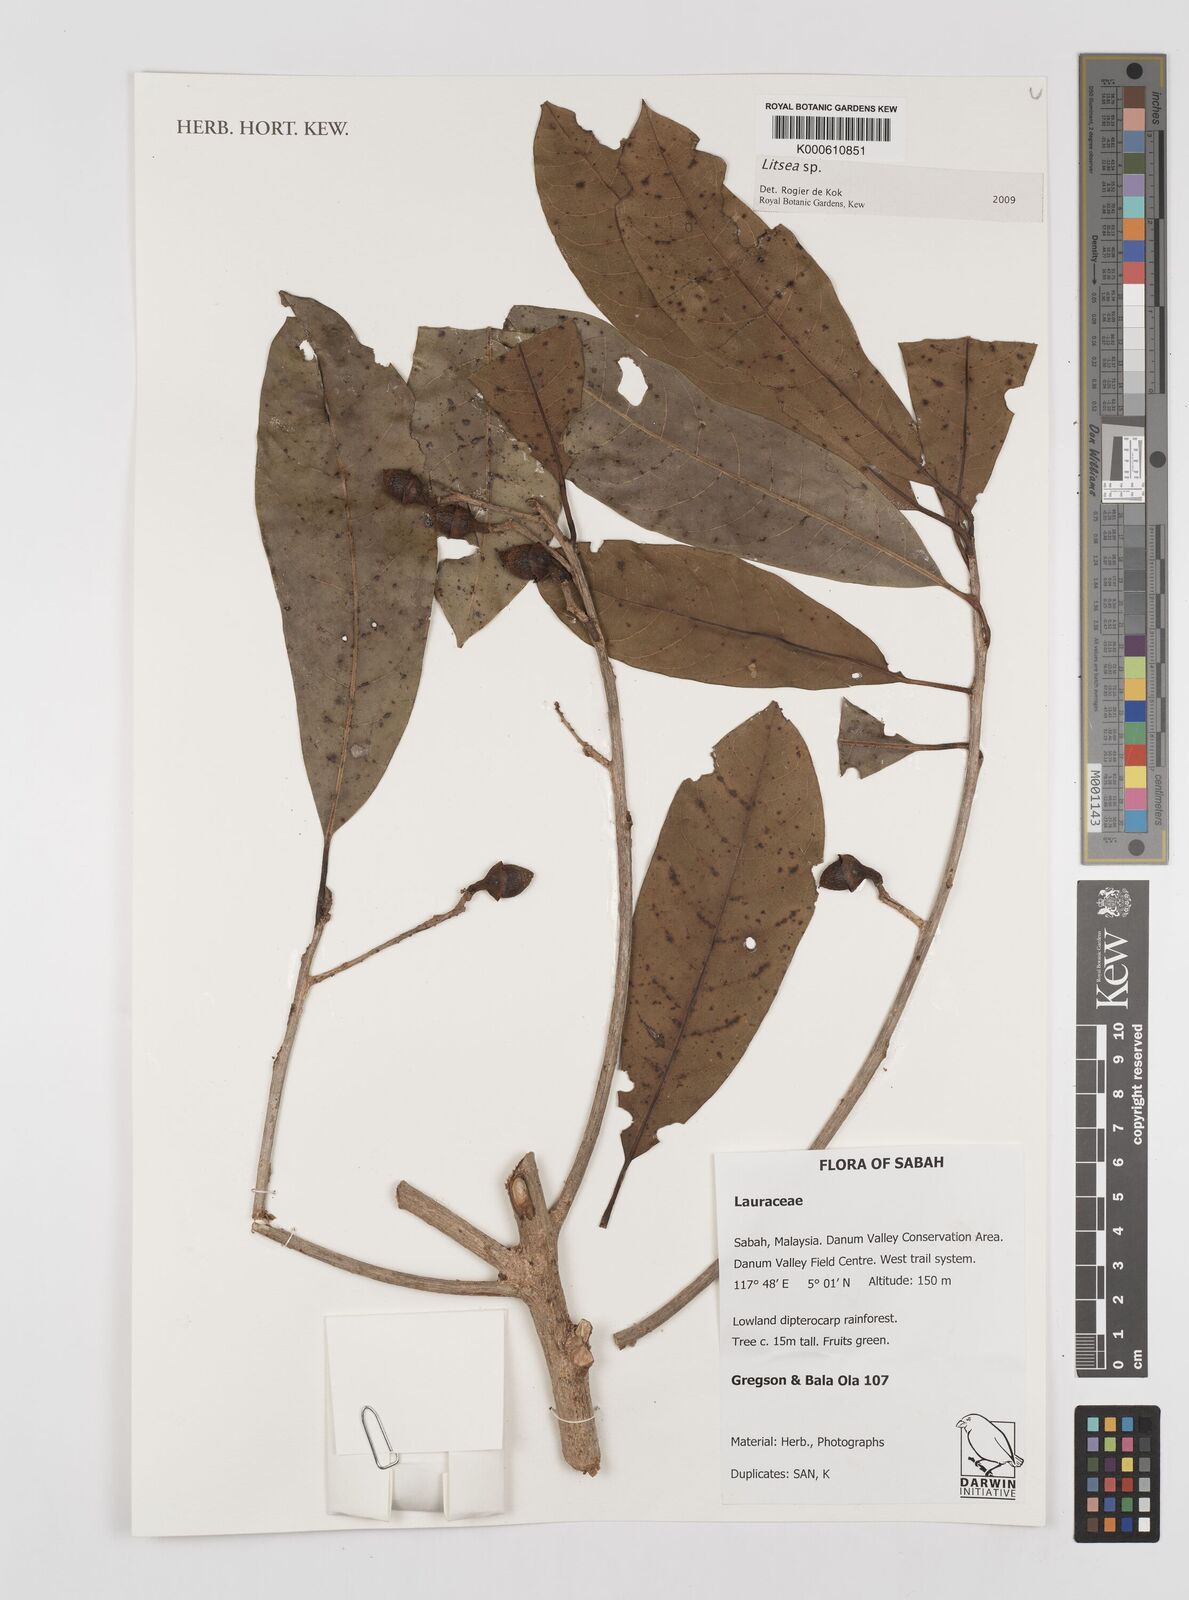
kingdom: Plantae
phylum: Tracheophyta
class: Magnoliopsida
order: Laurales
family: Lauraceae
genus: Litsea
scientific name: Litsea
